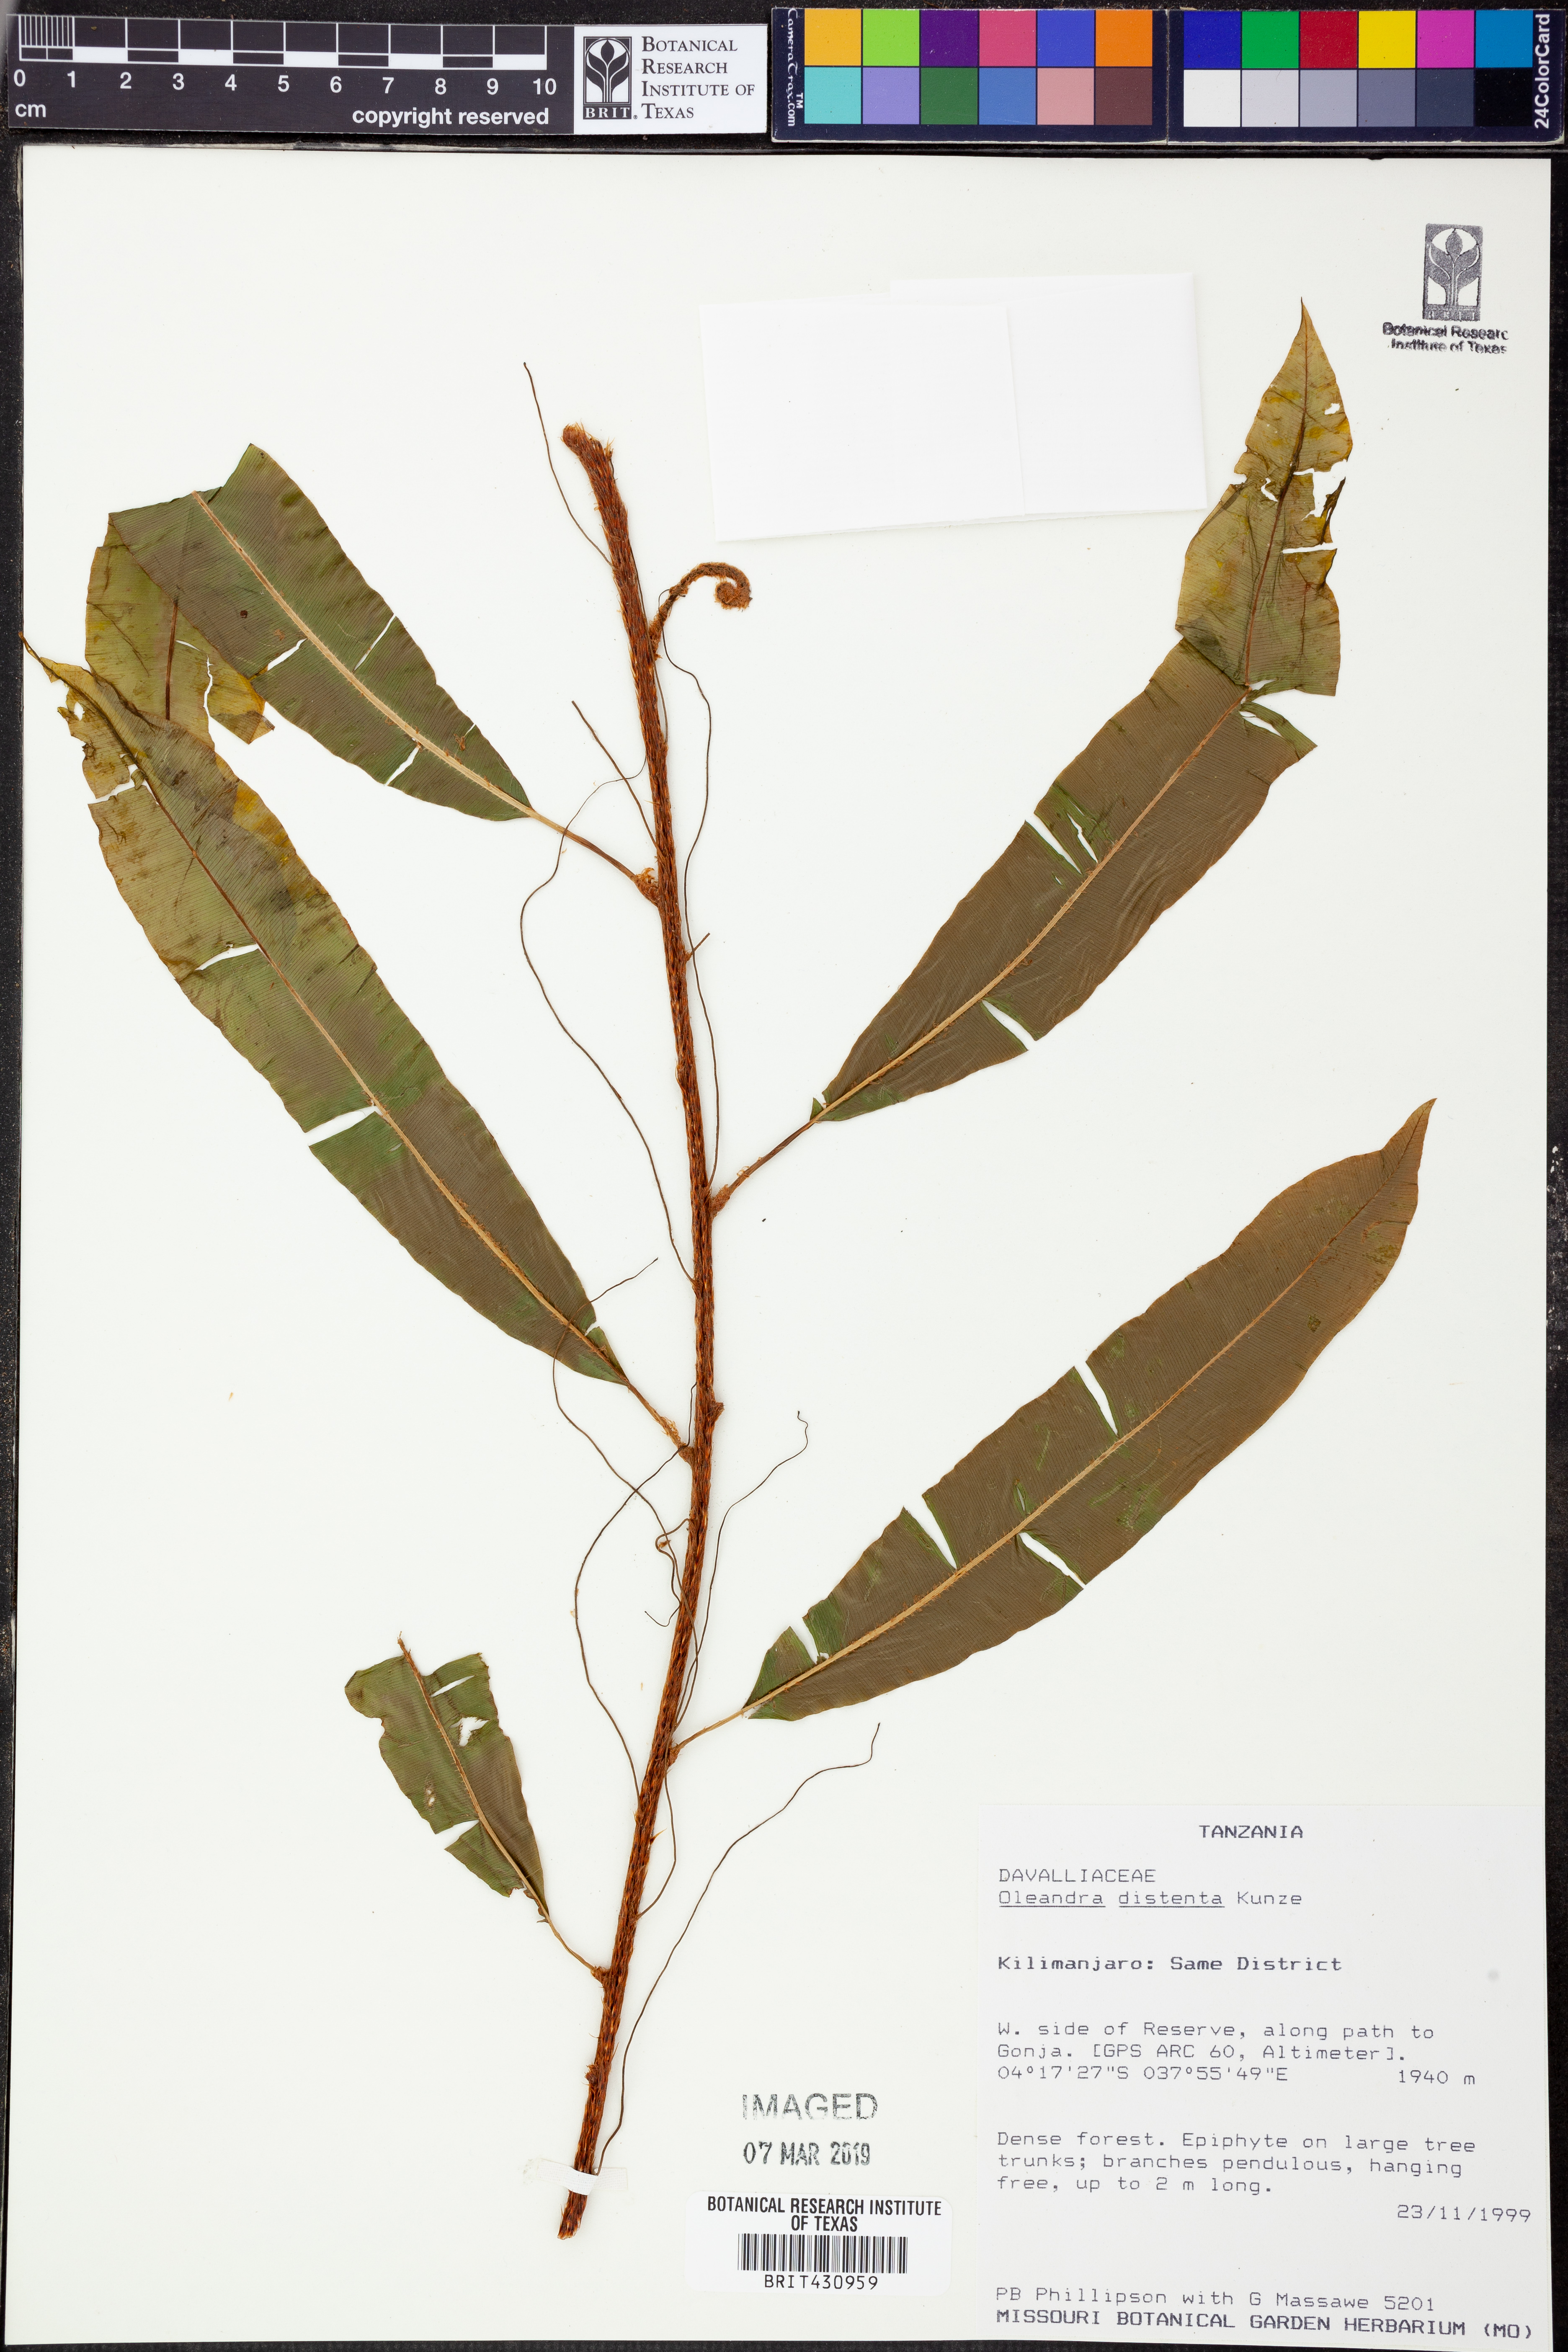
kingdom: Plantae
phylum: Tracheophyta
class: Polypodiopsida
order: Polypodiales
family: Oleandraceae
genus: Oleandra
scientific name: Oleandra distenta
